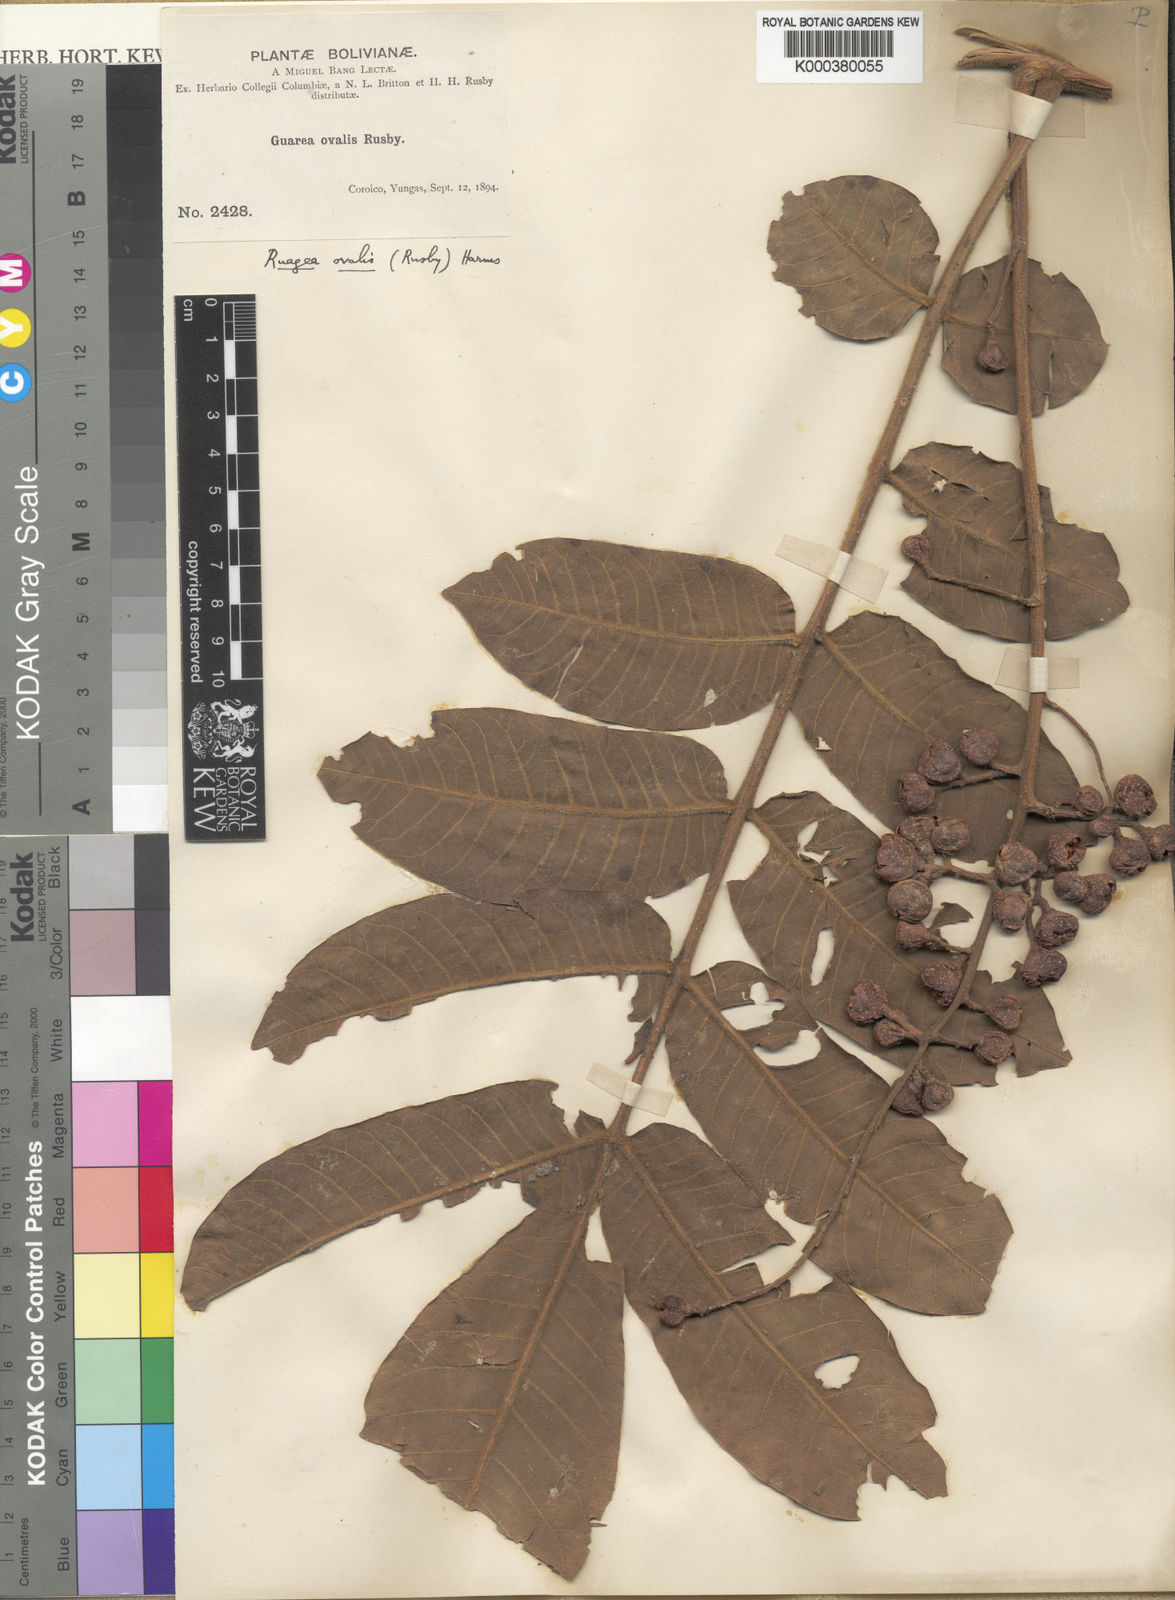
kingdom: Plantae
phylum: Tracheophyta
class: Magnoliopsida
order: Sapindales
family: Meliaceae
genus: Ruagea
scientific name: Ruagea ovalis
